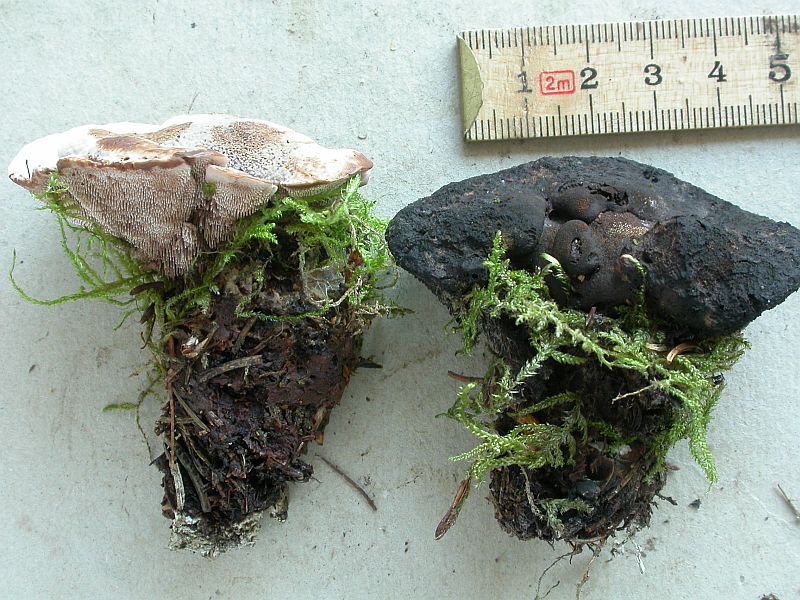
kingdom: Fungi
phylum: Basidiomycota
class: Agaricomycetes
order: Thelephorales
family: Bankeraceae
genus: Hydnellum
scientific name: Hydnellum ferrugineum
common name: rust-korkpigsvamp
